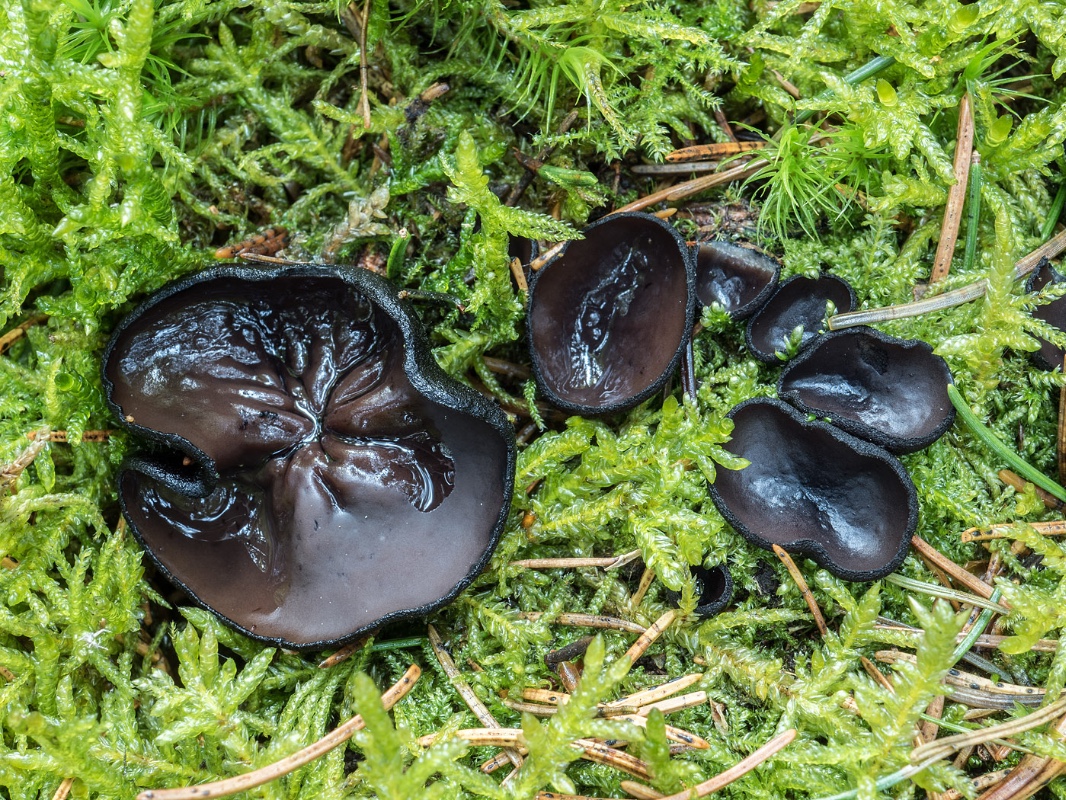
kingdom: Fungi
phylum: Ascomycota
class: Pezizomycetes
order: Pezizales
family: Sarcosomataceae
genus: Pseudoplectania
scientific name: Pseudoplectania nigrella
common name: almindelig sortbæger
